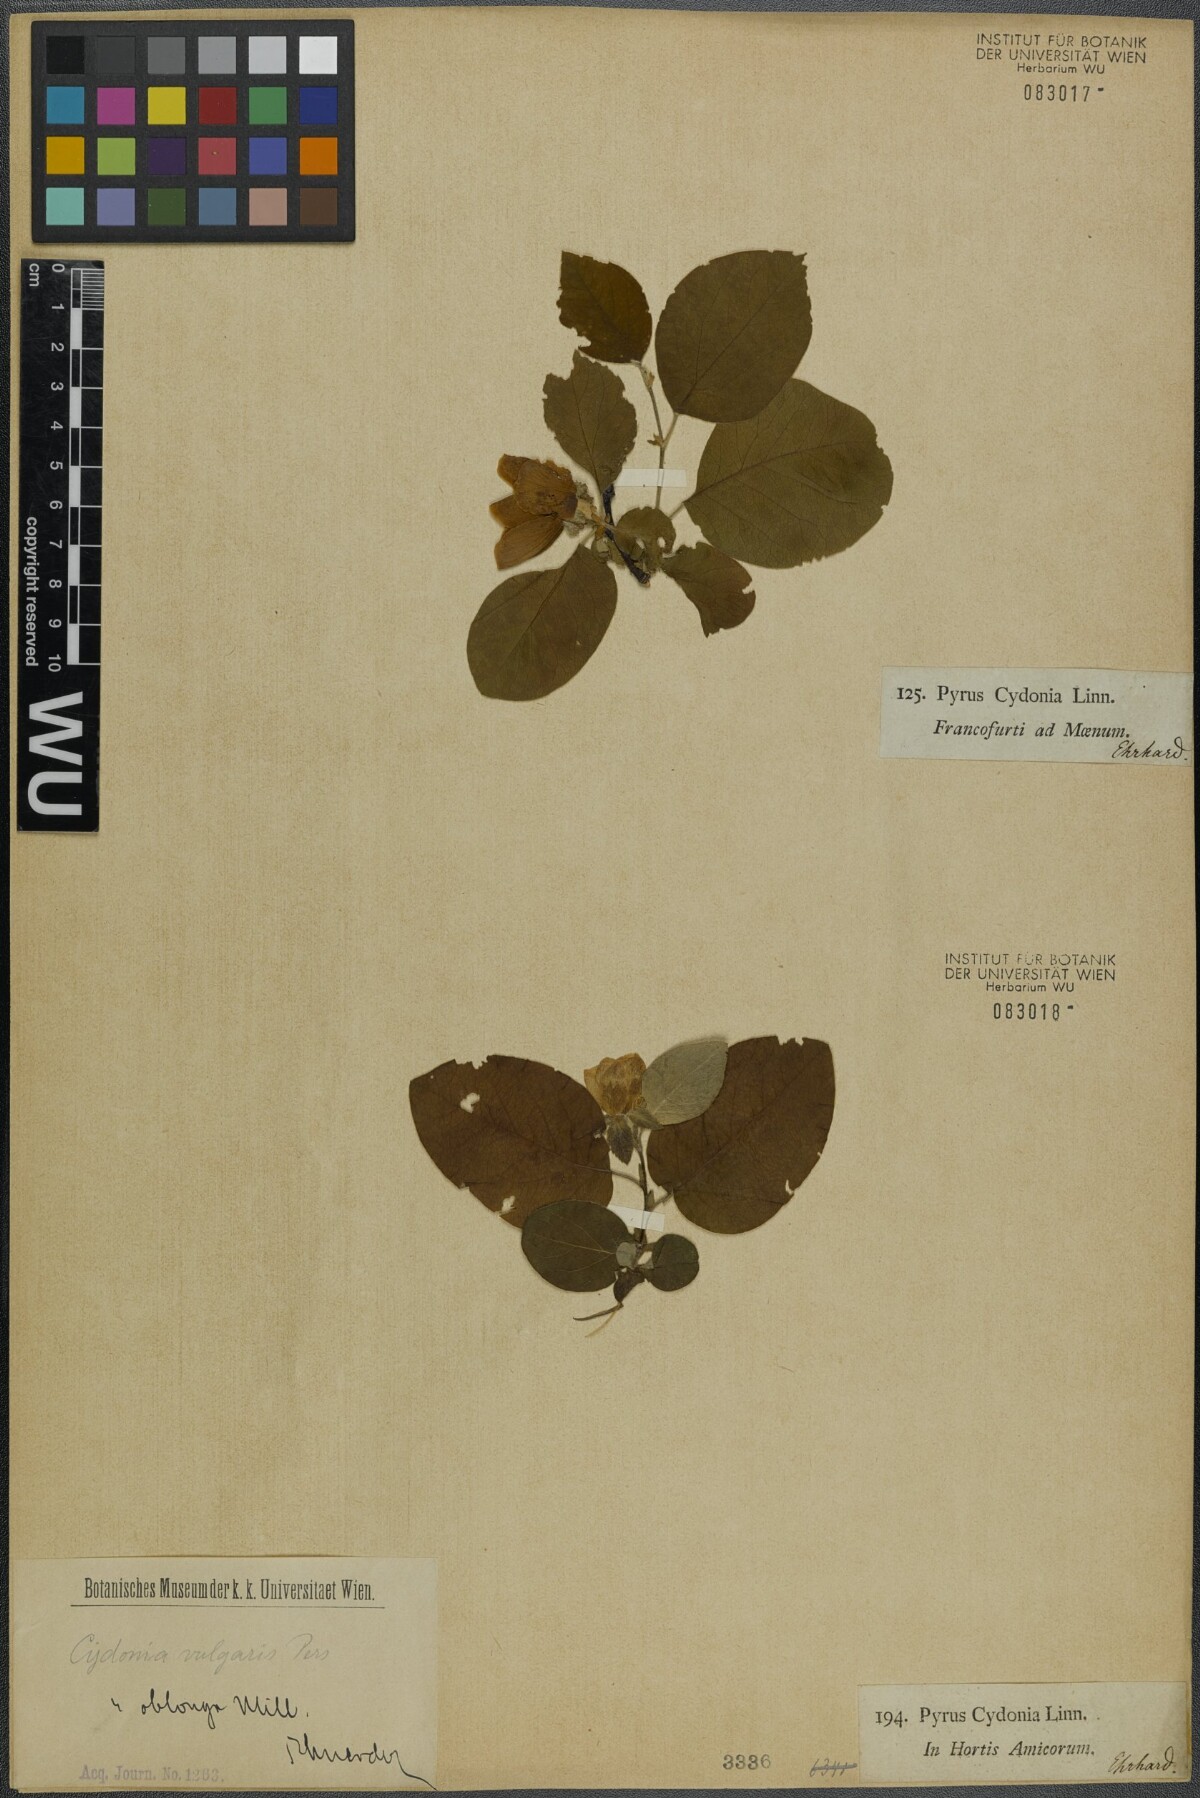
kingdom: Plantae
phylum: Tracheophyta
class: Magnoliopsida
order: Rosales
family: Rosaceae
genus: Cydonia
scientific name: Cydonia oblonga
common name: Quince
